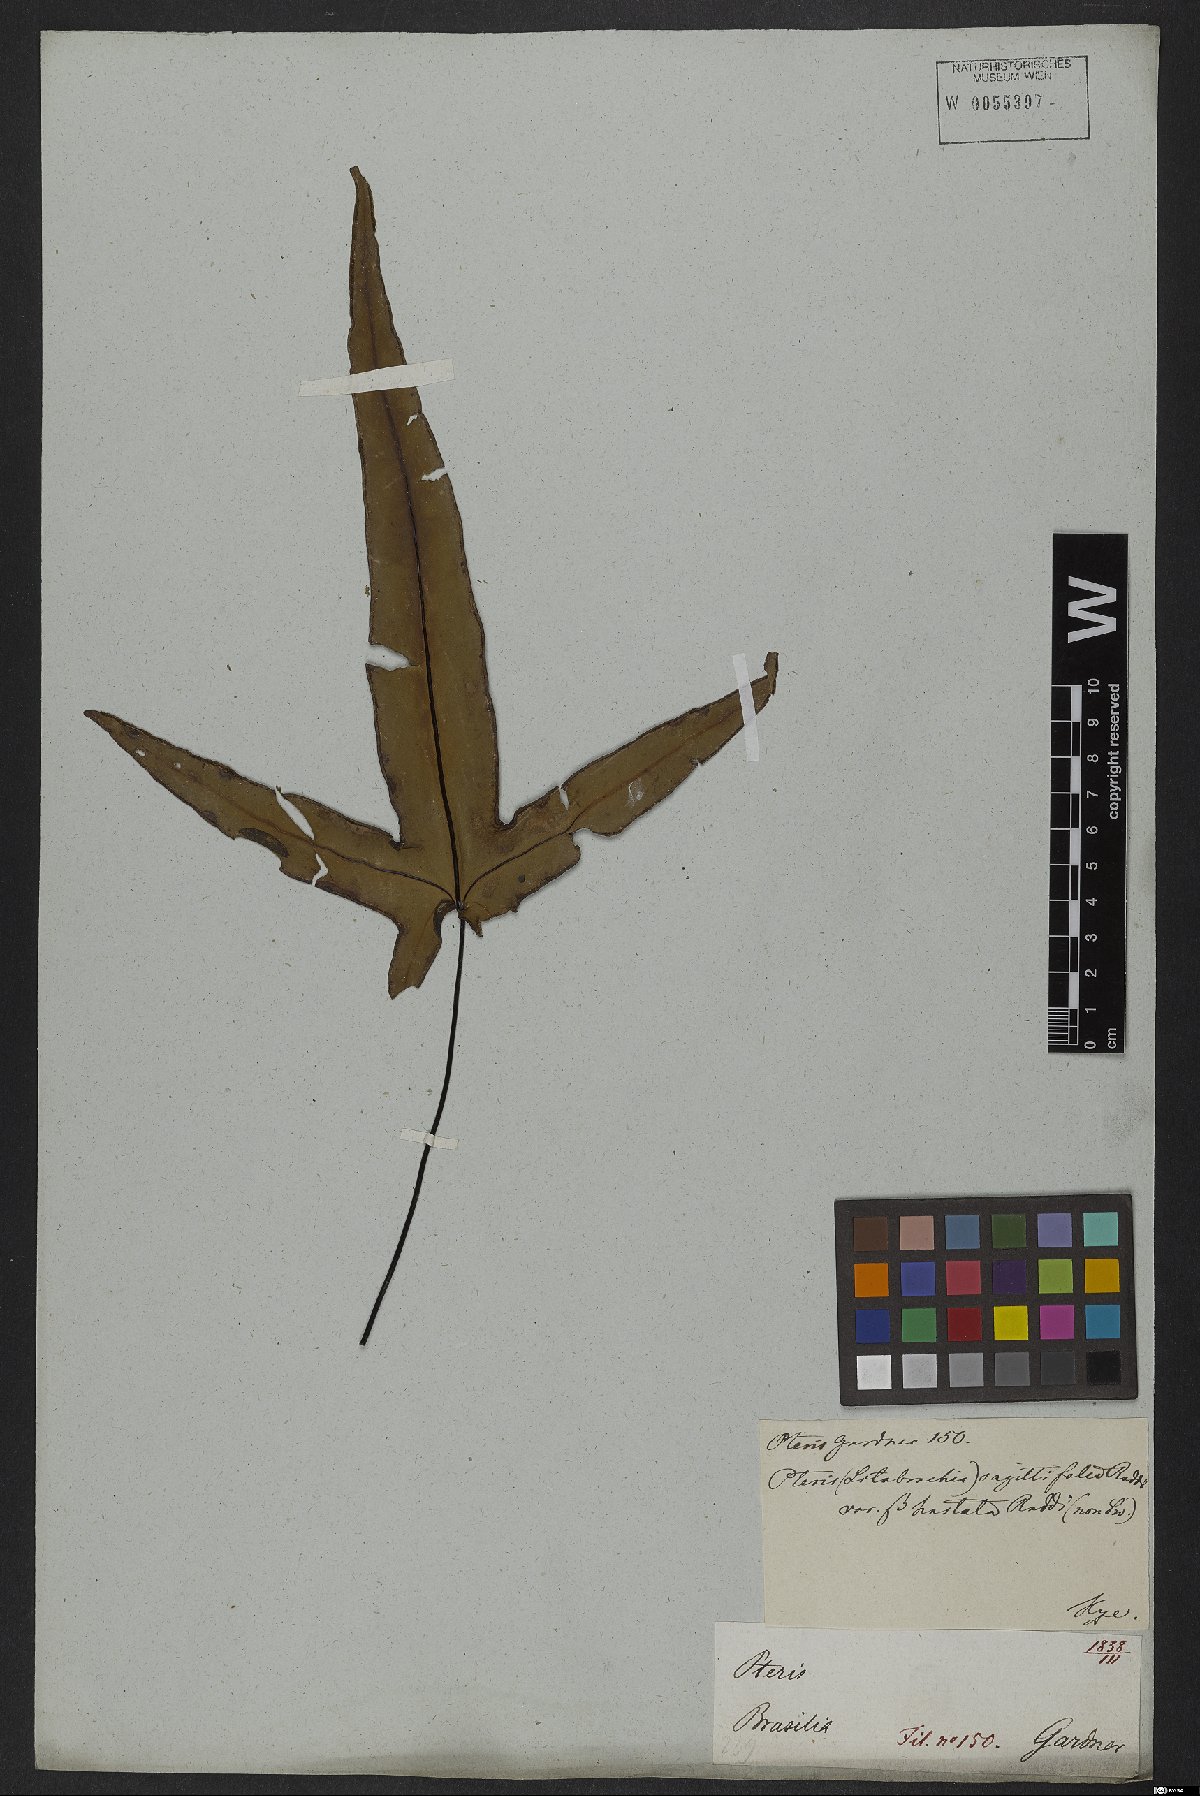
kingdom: Plantae
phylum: Tracheophyta
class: Polypodiopsida
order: Polypodiales
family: Pteridaceae
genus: Doryopteris
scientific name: Doryopteris sagittifolia
